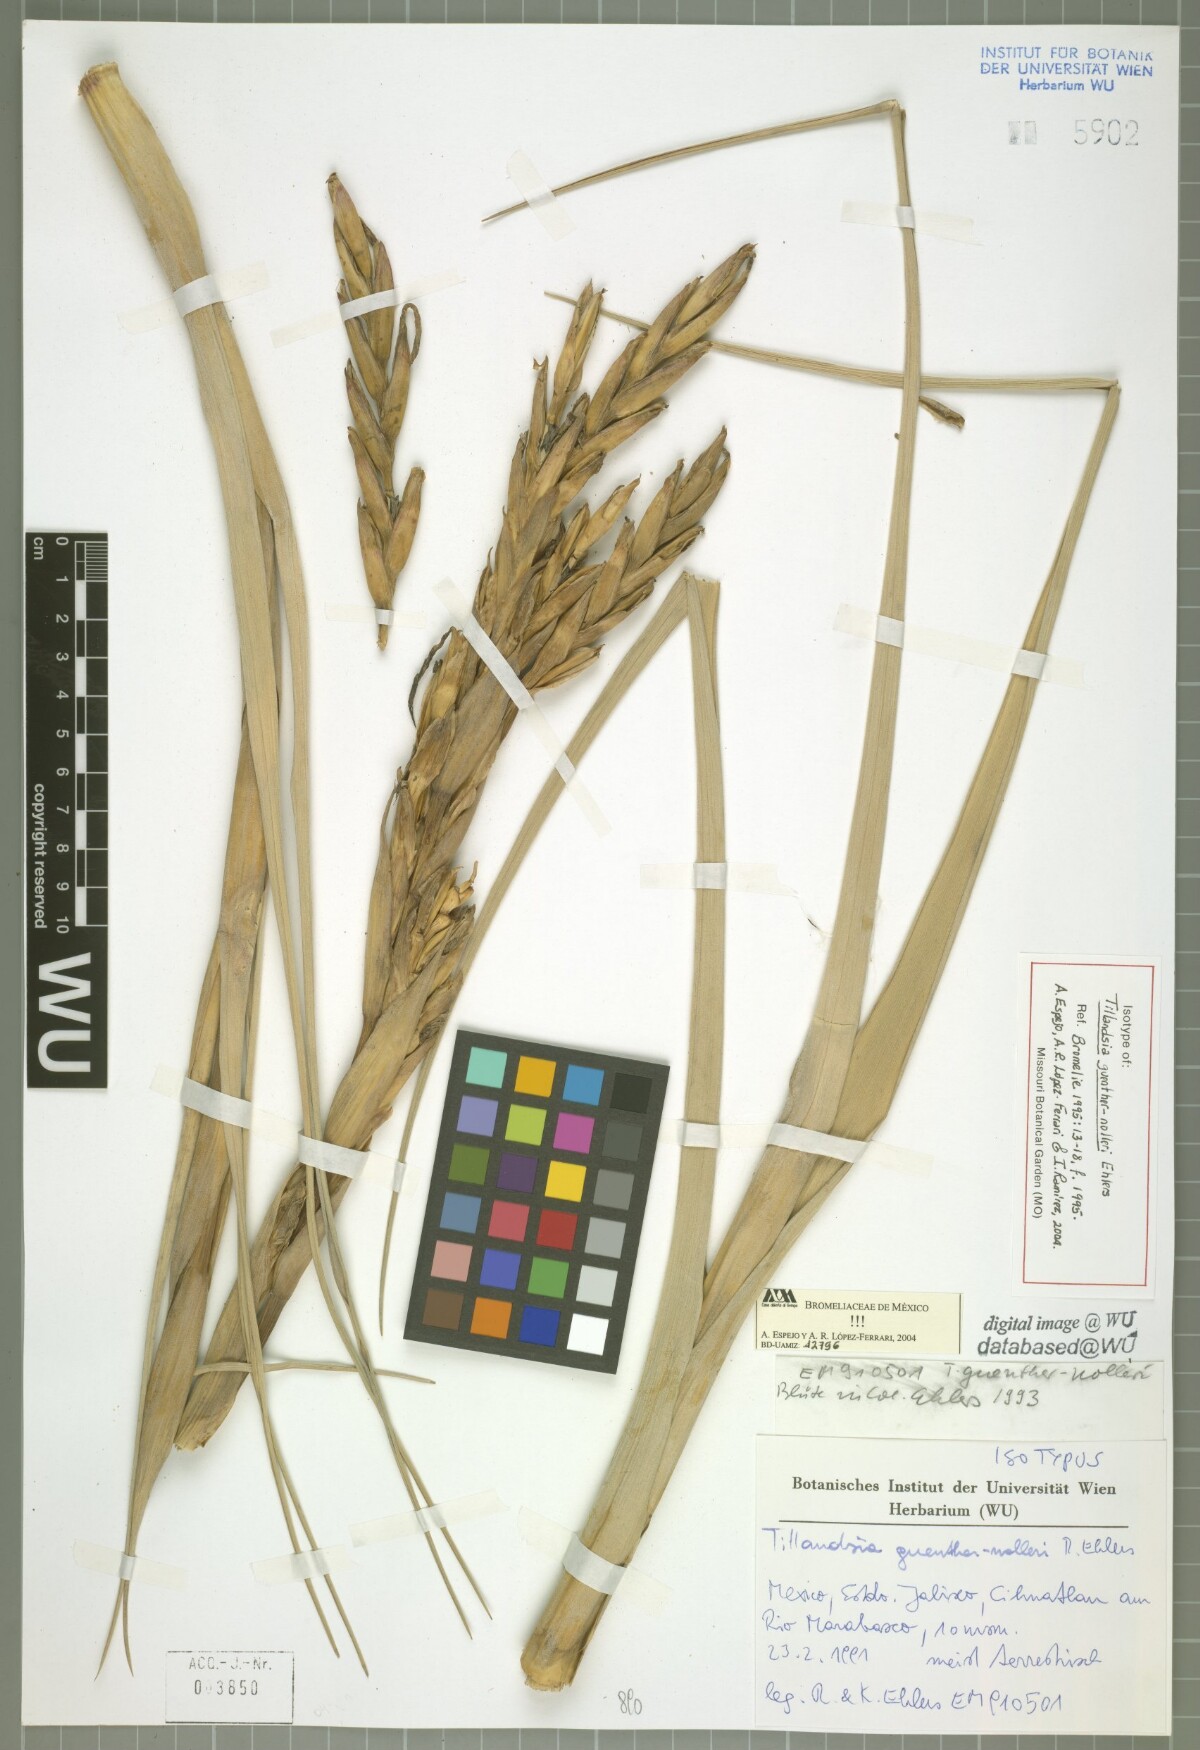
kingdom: Plantae
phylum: Tracheophyta
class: Liliopsida
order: Poales
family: Bromeliaceae
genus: Tillandsia
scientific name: Tillandsia guenther-nolleri
